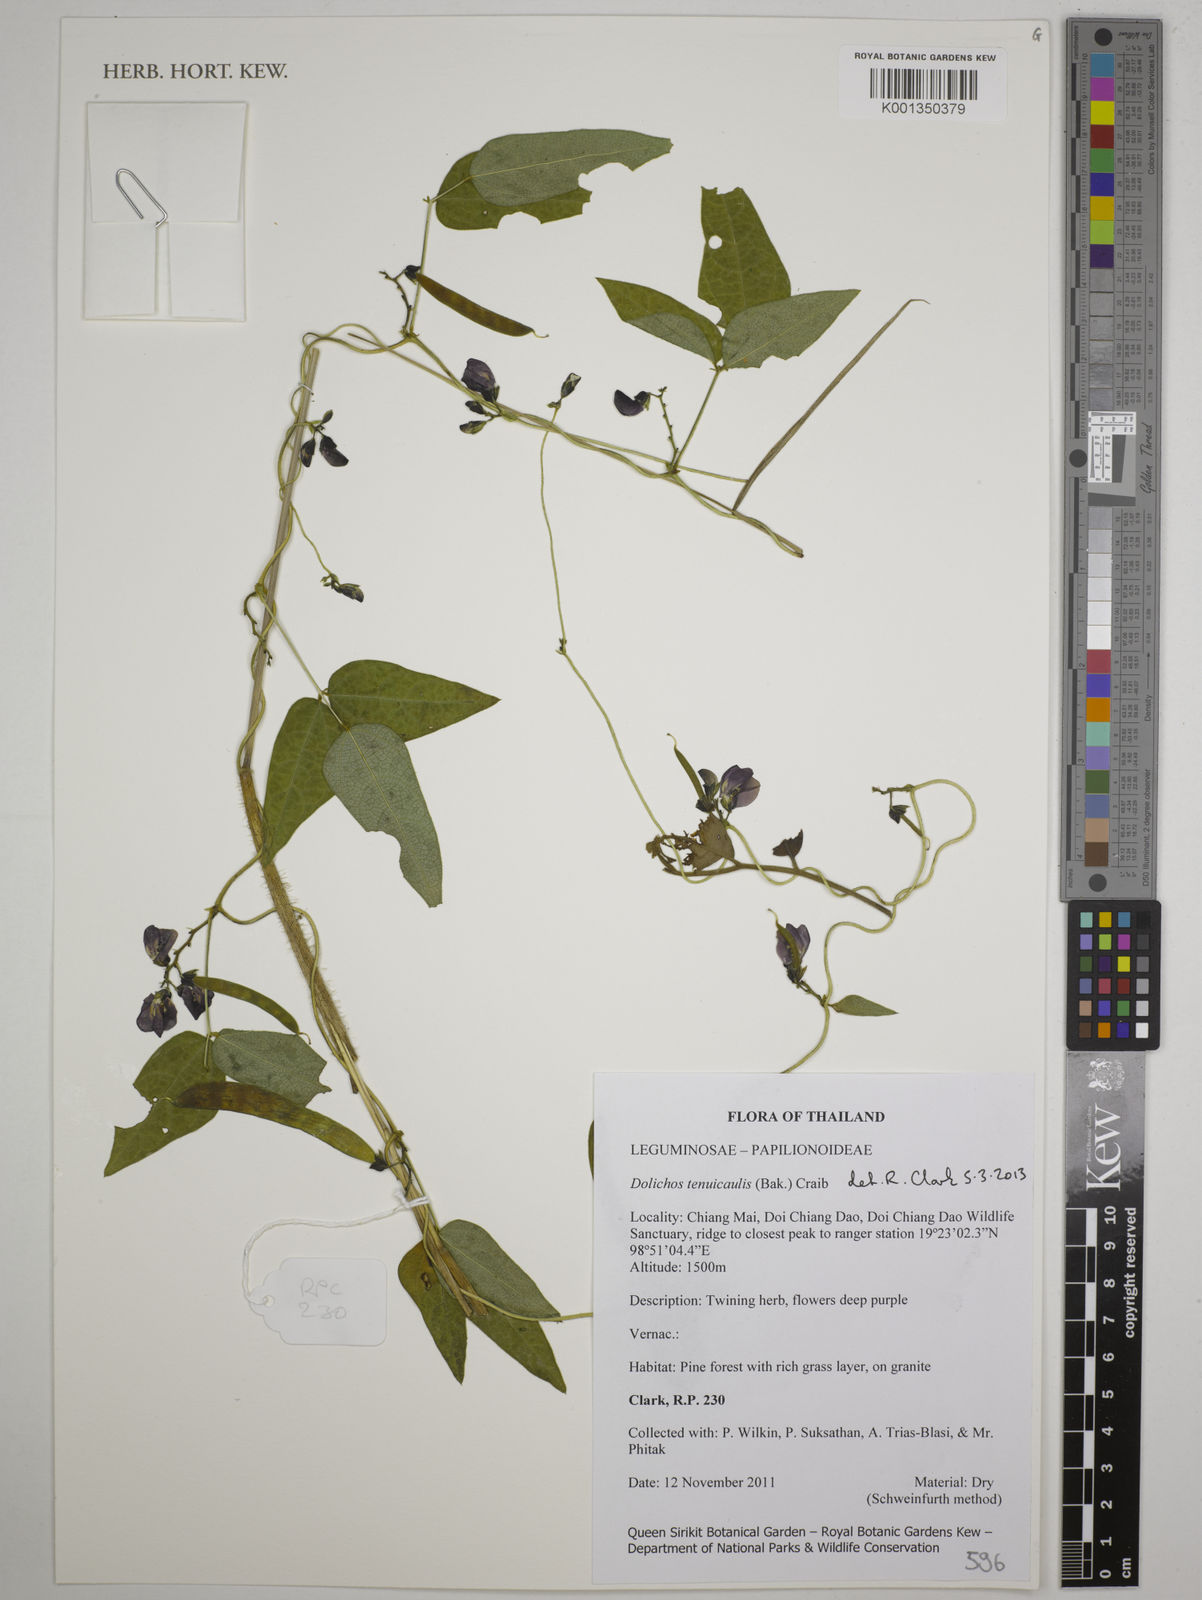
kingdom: Plantae
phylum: Tracheophyta
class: Magnoliopsida
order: Fabales
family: Fabaceae
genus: Dolichos
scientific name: Dolichos tenuicaulis
